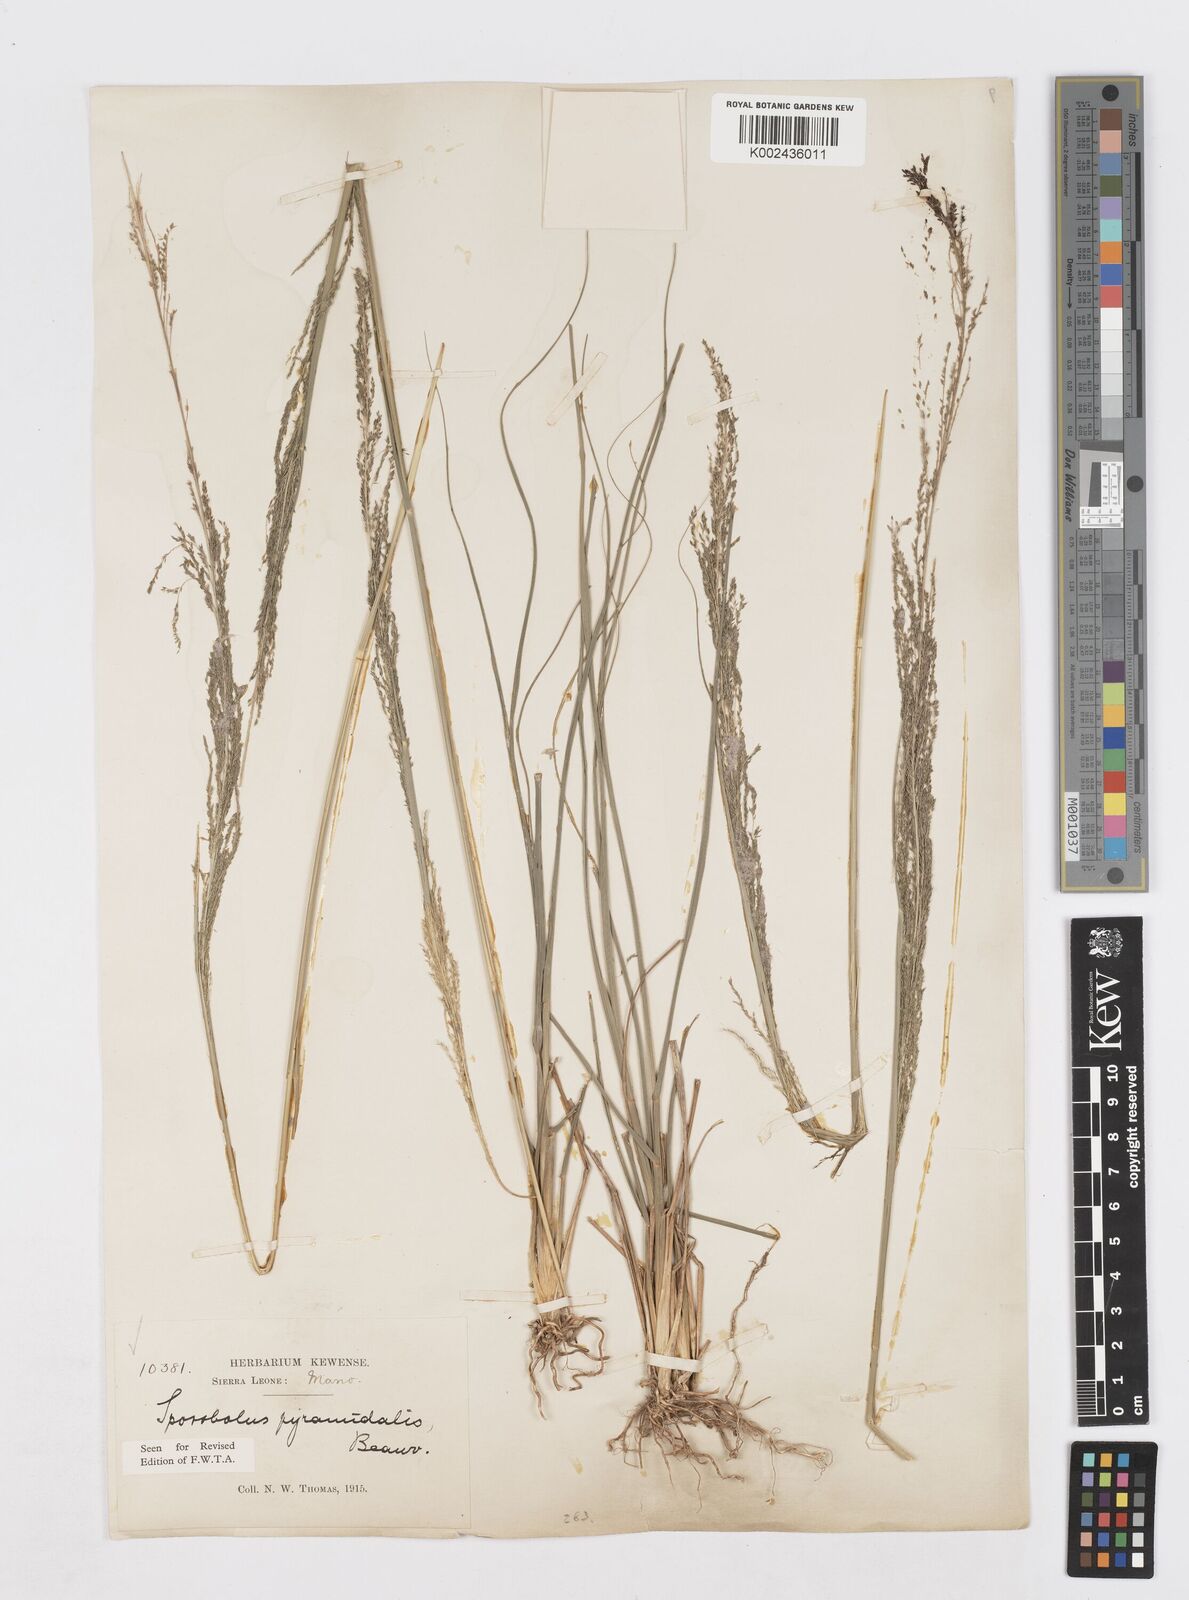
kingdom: Plantae
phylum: Tracheophyta
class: Liliopsida
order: Poales
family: Poaceae
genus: Sporobolus
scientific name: Sporobolus pyramidalis
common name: West indian dropseed
